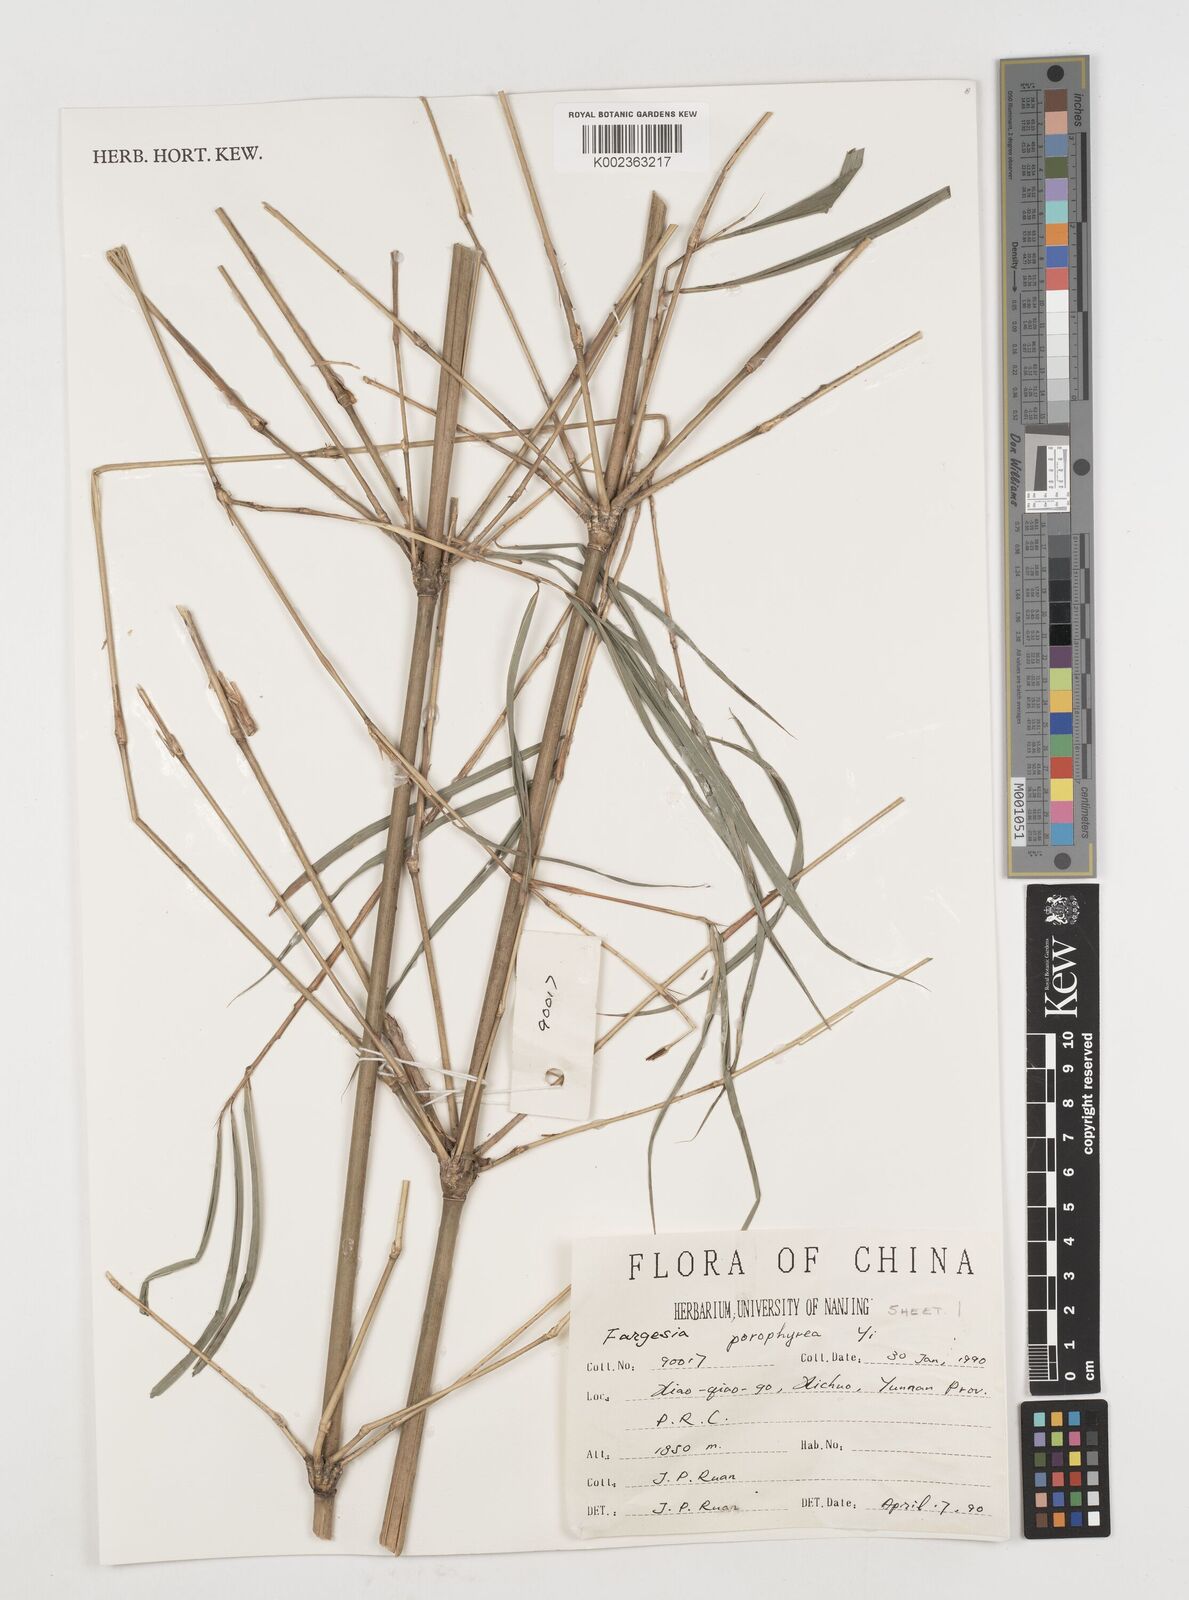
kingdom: Plantae
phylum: Tracheophyta
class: Liliopsida
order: Poales
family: Poaceae
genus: Fargesia
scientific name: Fargesia porphyrea
